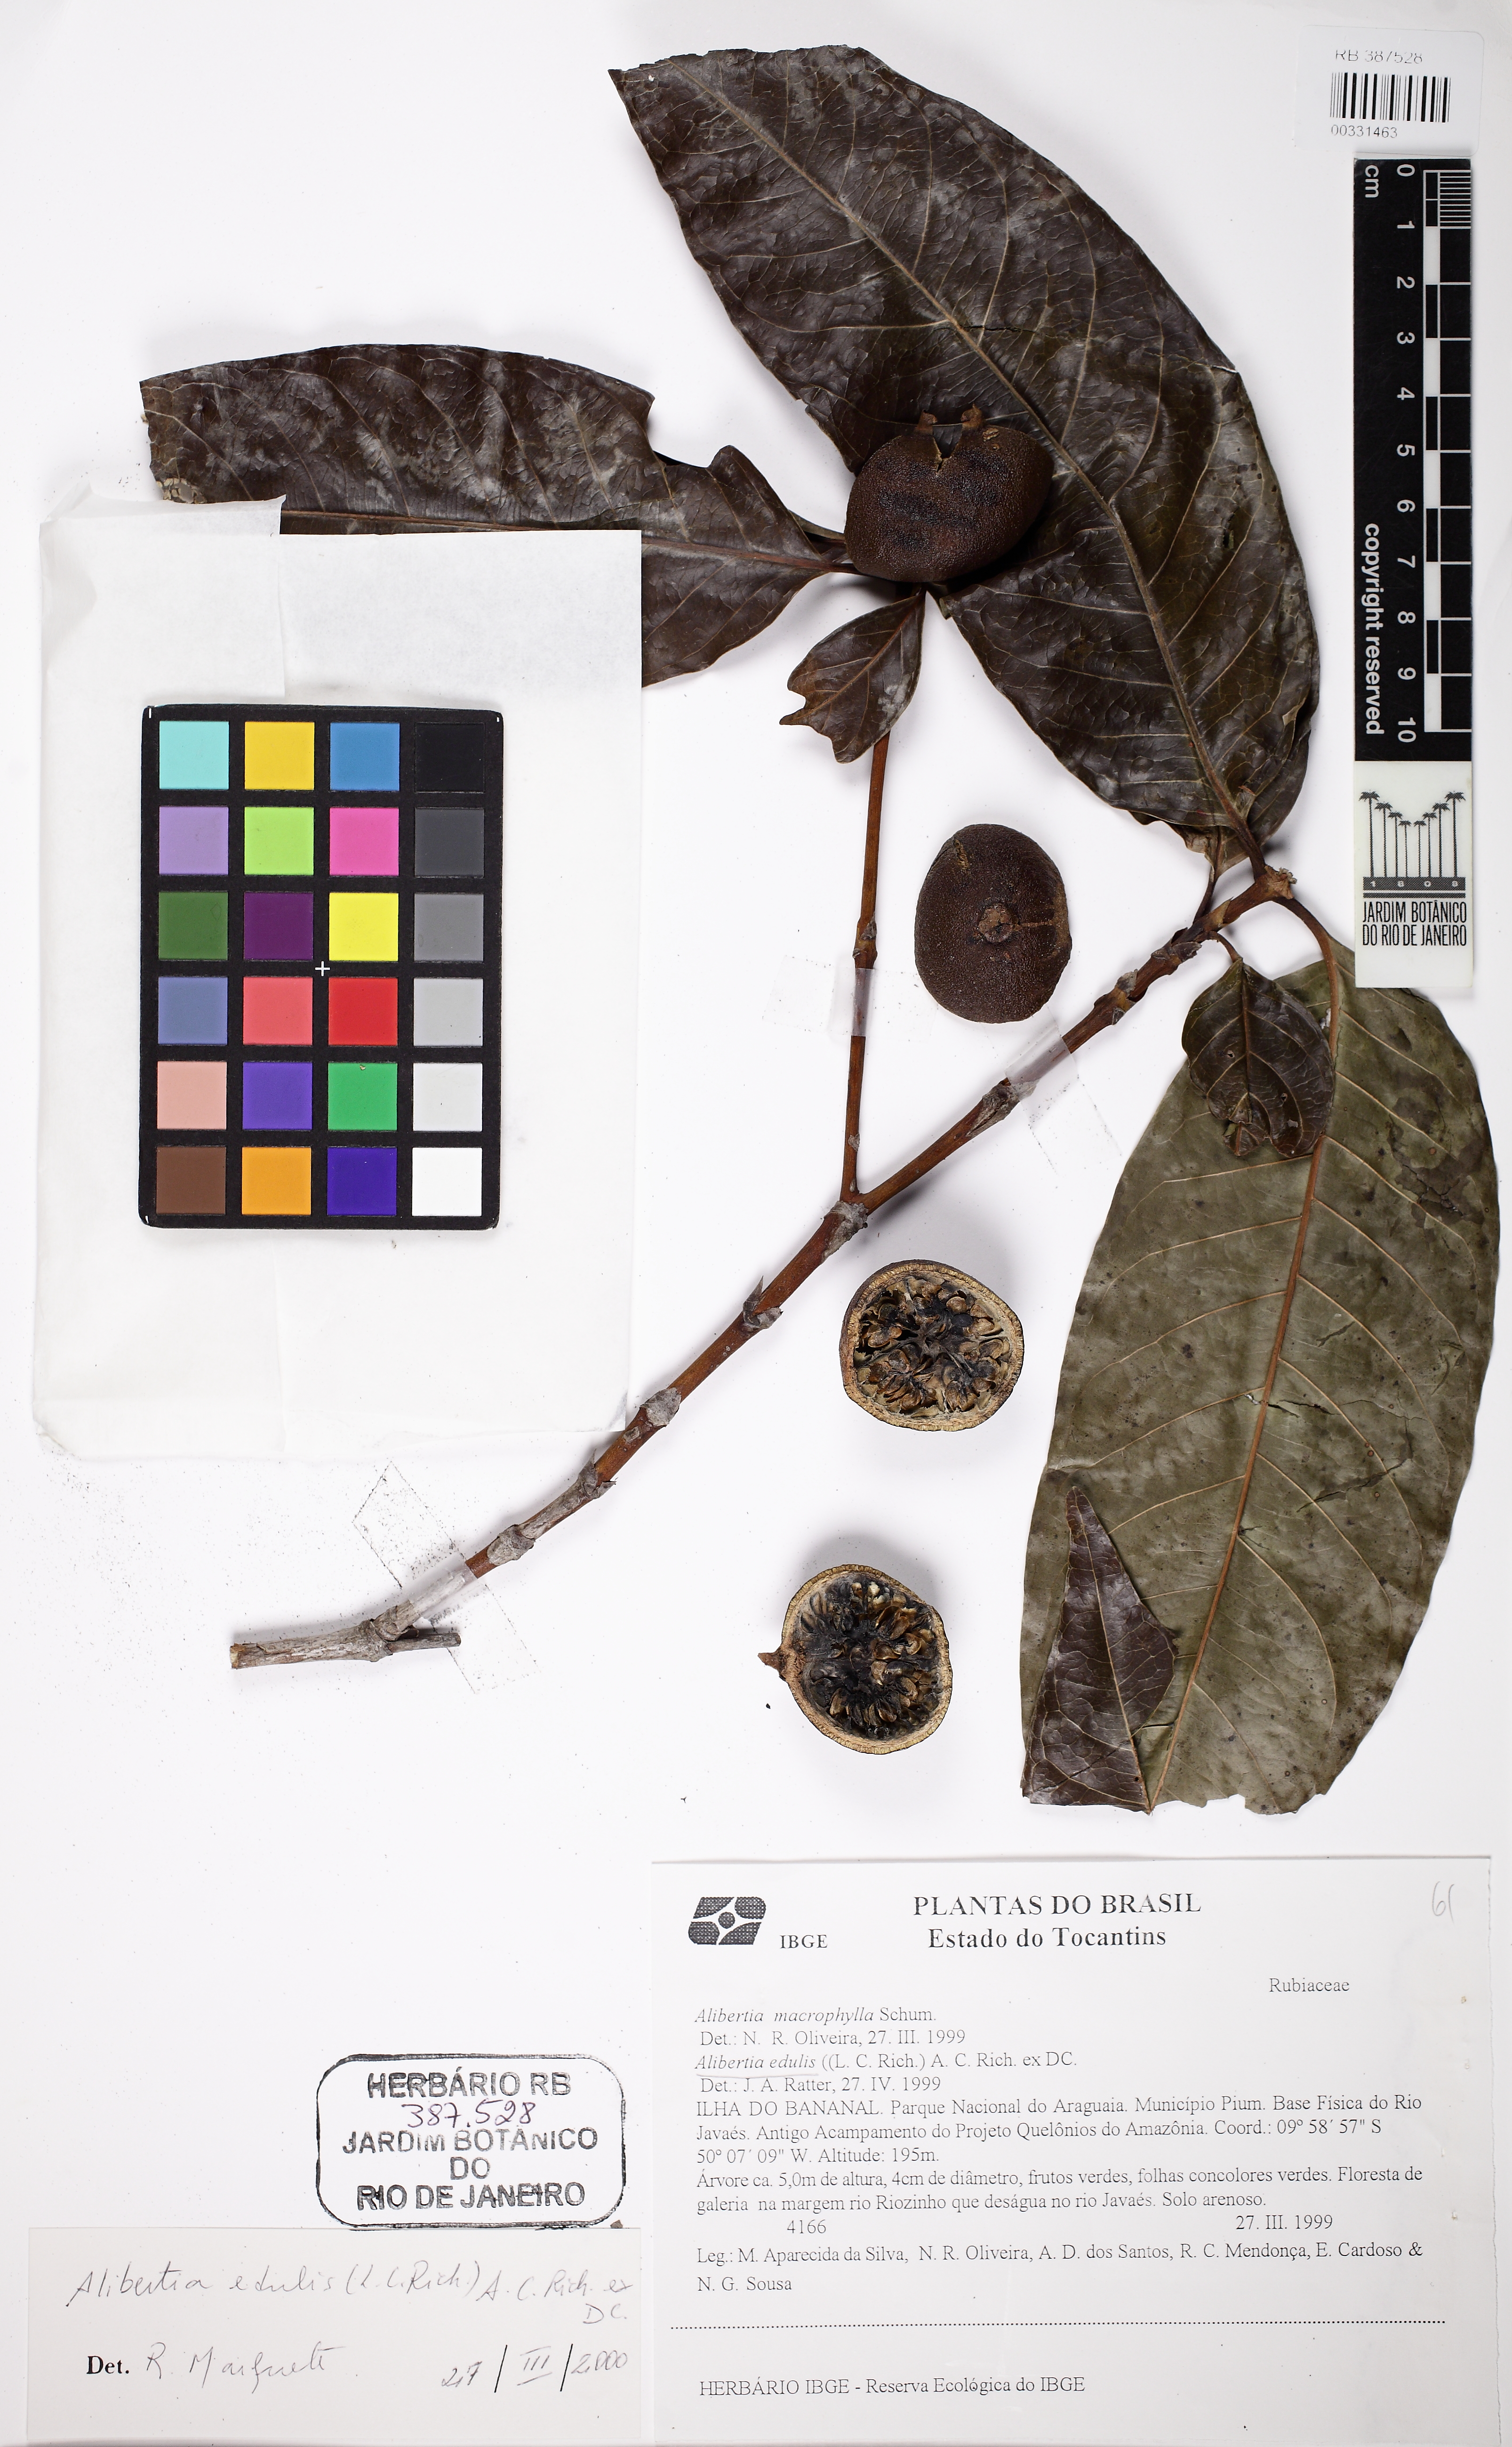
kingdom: Plantae
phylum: Tracheophyta
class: Magnoliopsida
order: Gentianales
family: Rubiaceae
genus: Alibertia
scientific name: Alibertia edulis
